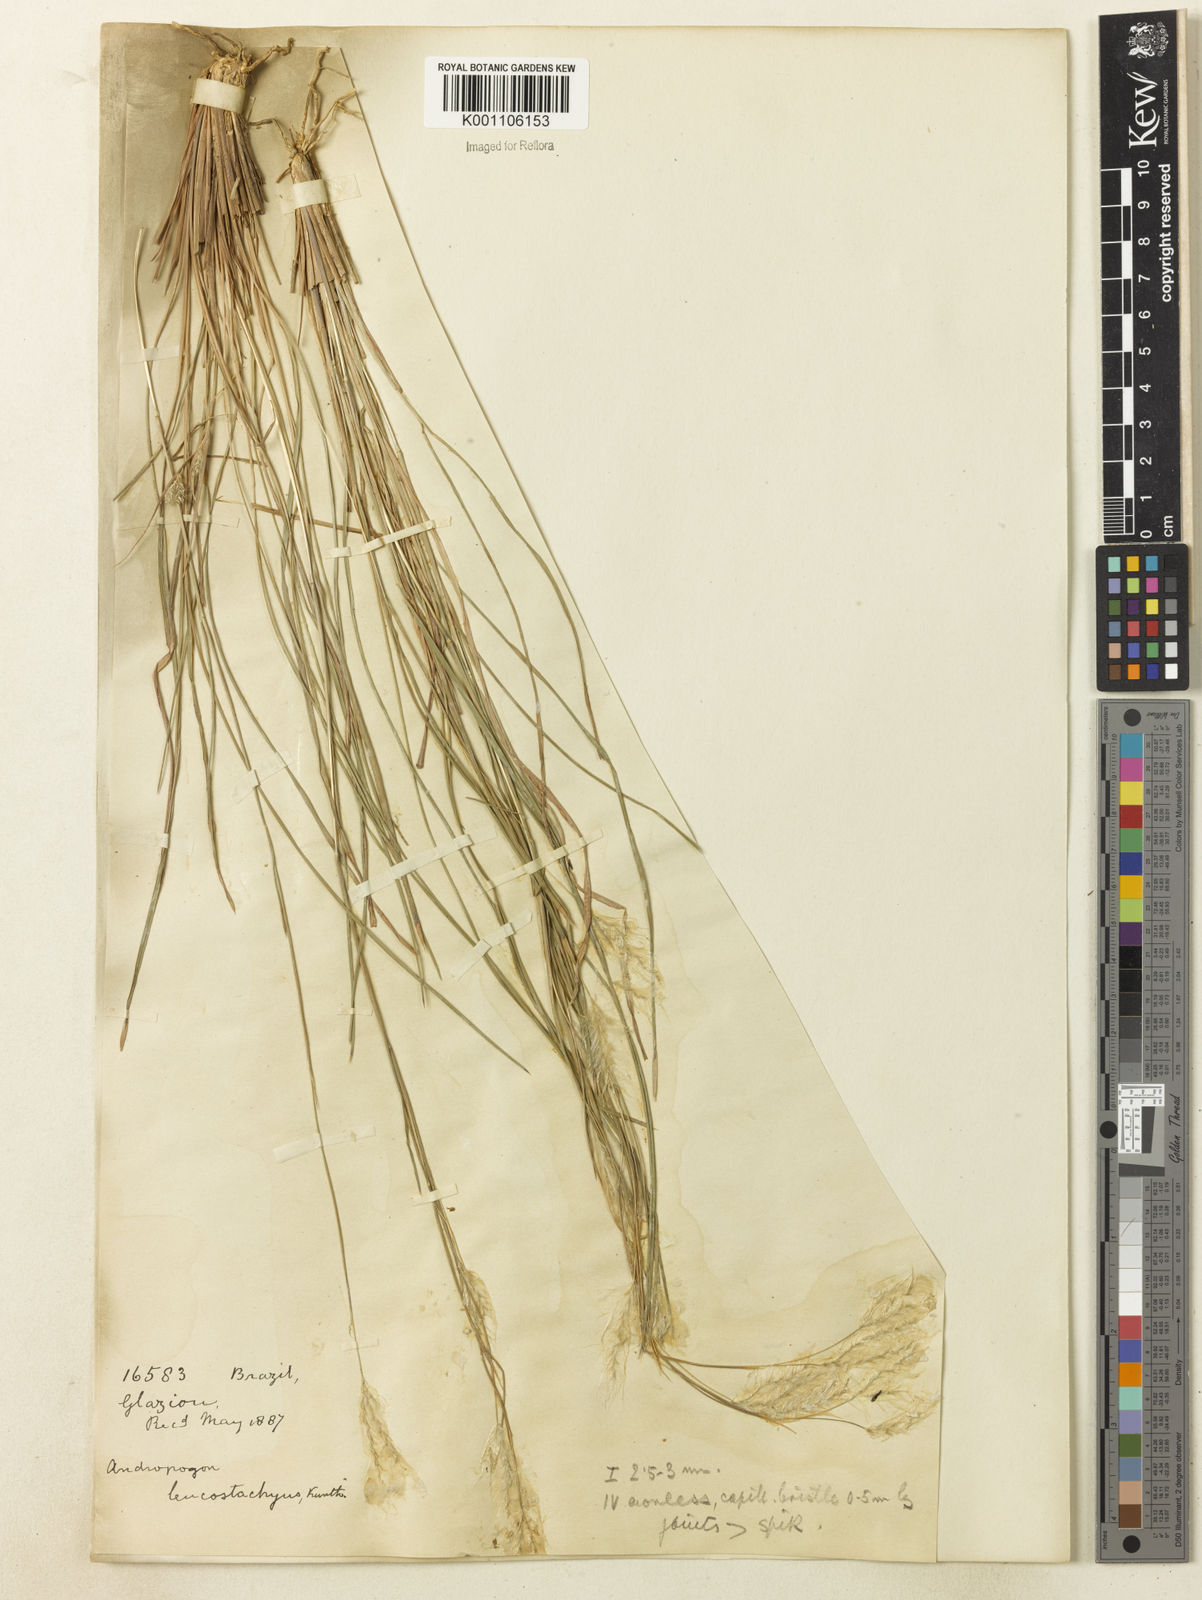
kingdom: Plantae
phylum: Tracheophyta
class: Liliopsida
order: Poales
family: Poaceae
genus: Andropogon
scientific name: Andropogon leucostachyus
